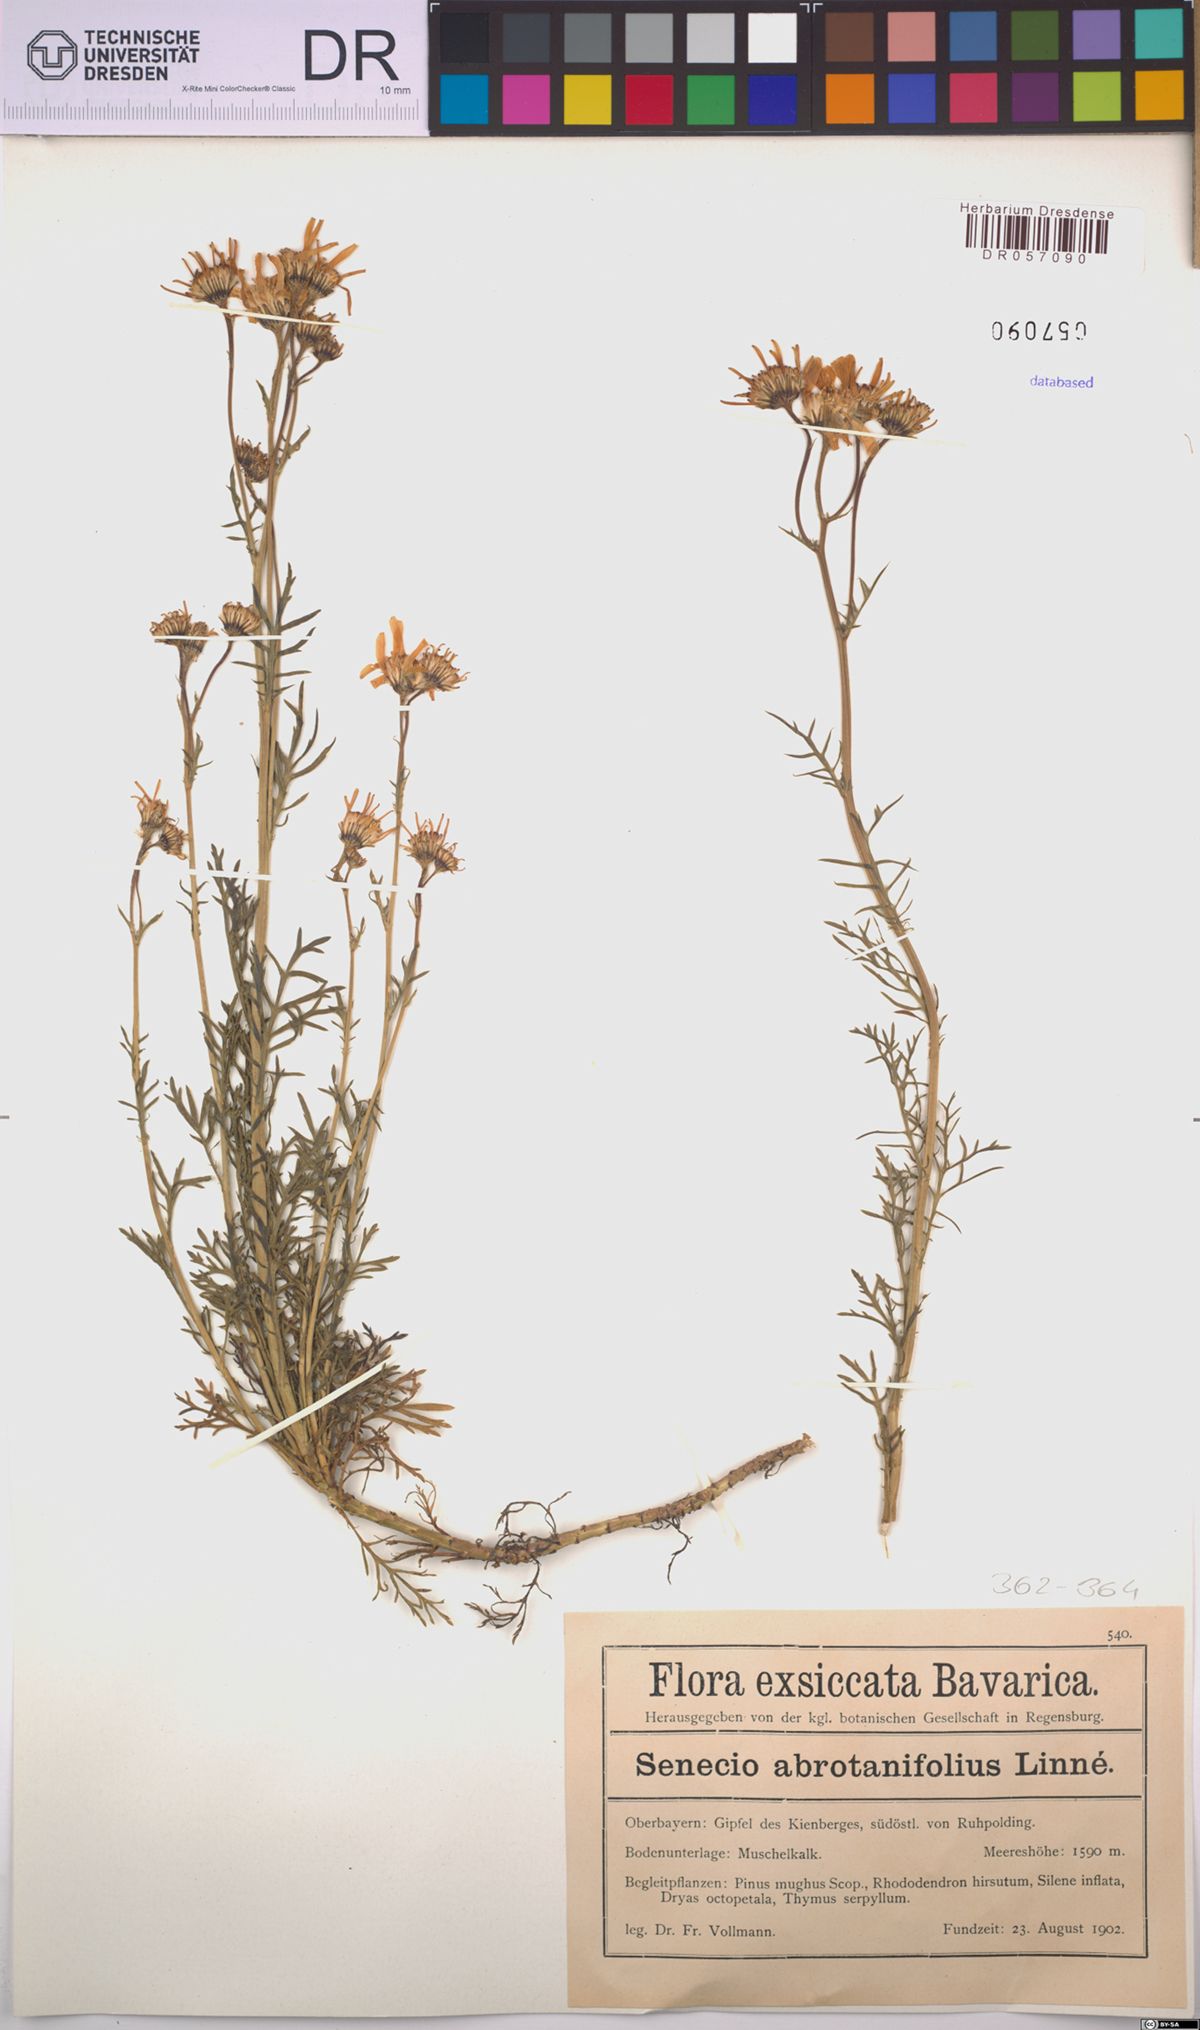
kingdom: Plantae
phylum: Tracheophyta
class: Magnoliopsida
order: Asterales
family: Asteraceae
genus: Jacobaea
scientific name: Jacobaea abrotanifolia
